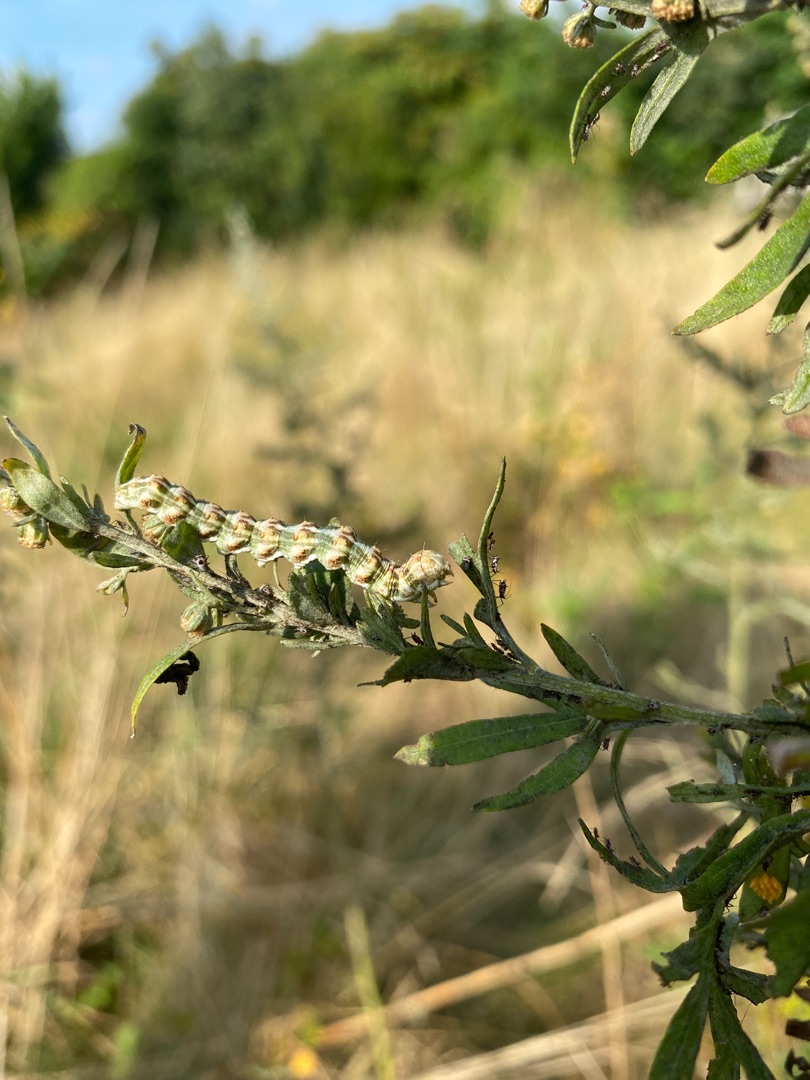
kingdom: Animalia
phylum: Arthropoda
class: Insecta
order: Lepidoptera
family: Noctuidae
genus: Cucullia
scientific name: Cucullia absinthii
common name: Bynke-hætteugle
